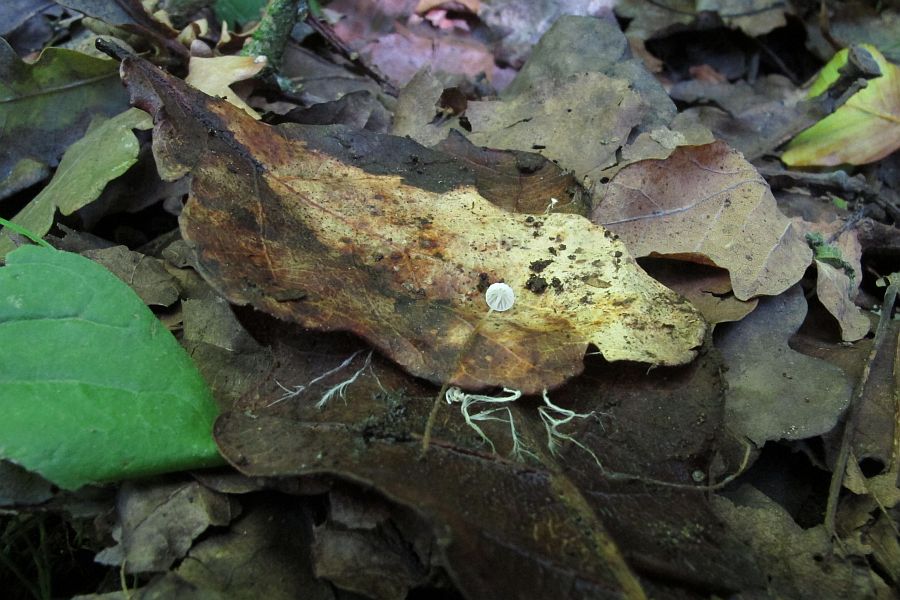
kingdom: Fungi
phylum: Basidiomycota
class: Agaricomycetes
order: Agaricales
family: Physalacriaceae
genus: Rhizomarasmius
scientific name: Rhizomarasmius setosus
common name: bøgeblads-bruskhat
